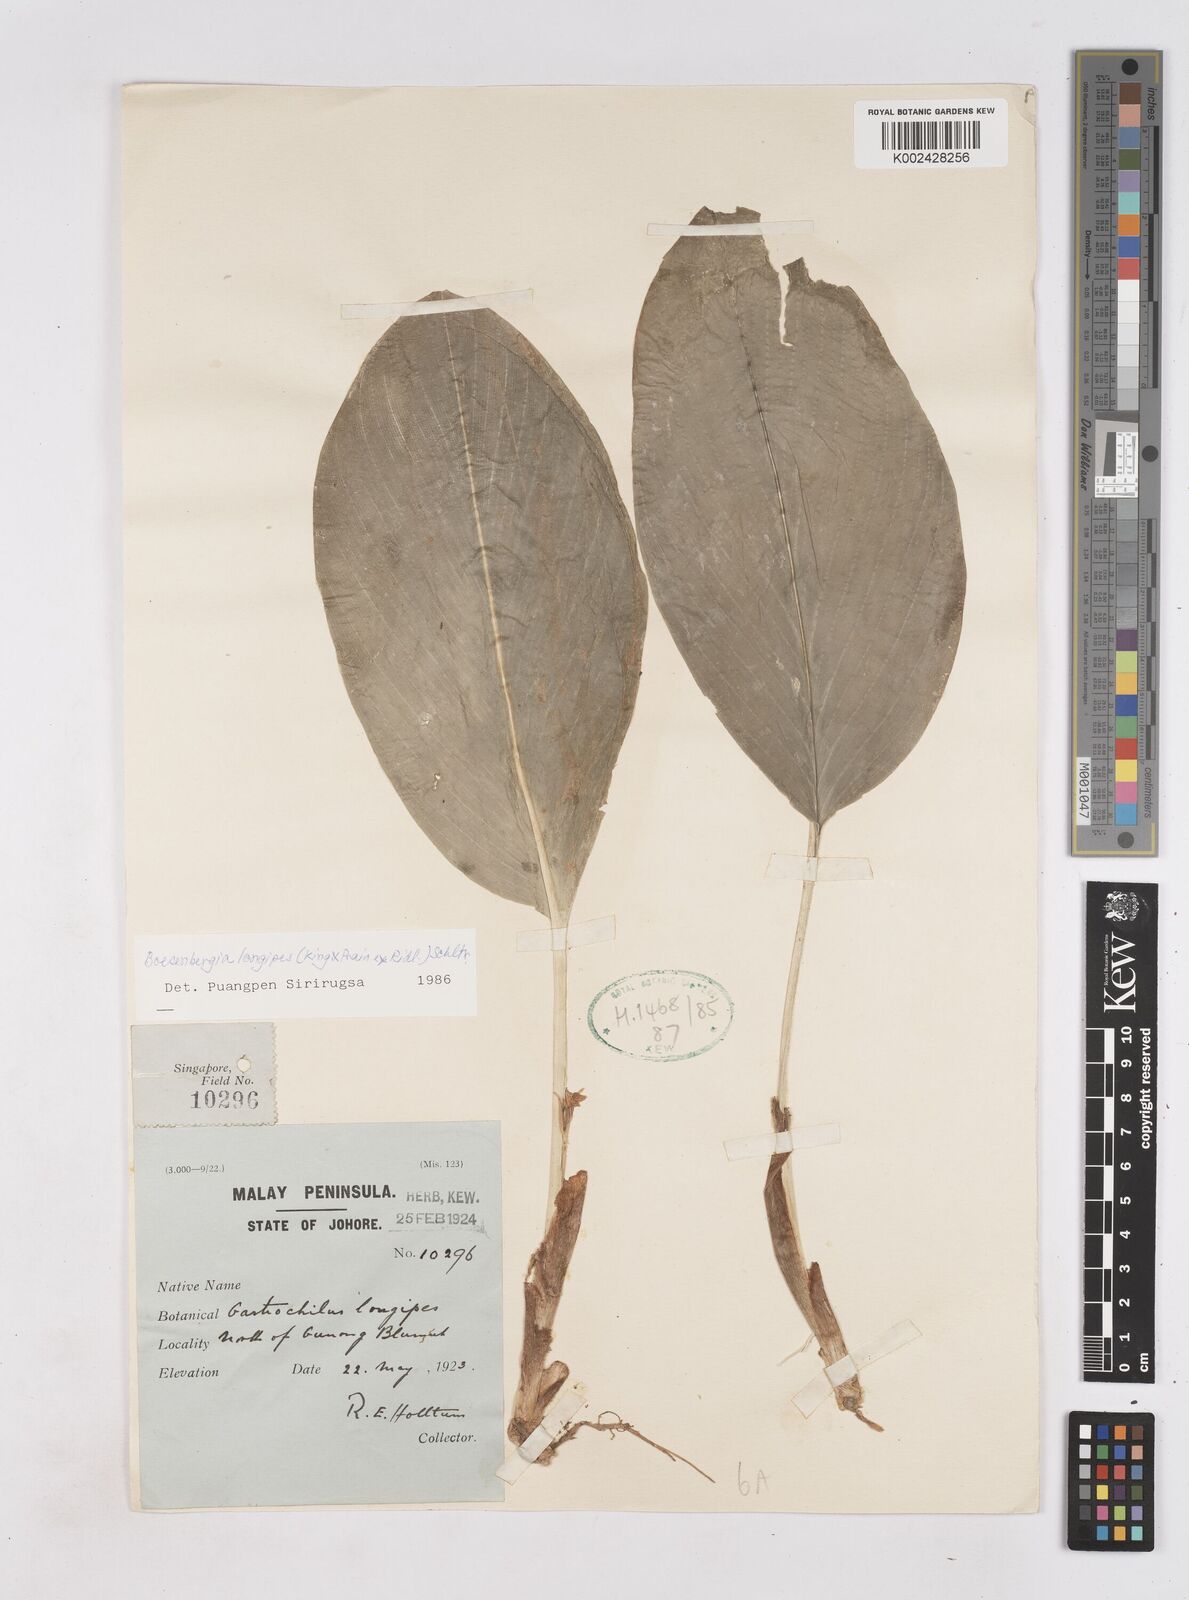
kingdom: Plantae
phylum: Tracheophyta
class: Liliopsida
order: Zingiberales
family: Zingiberaceae
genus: Boesenbergia
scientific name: Boesenbergia longipes
